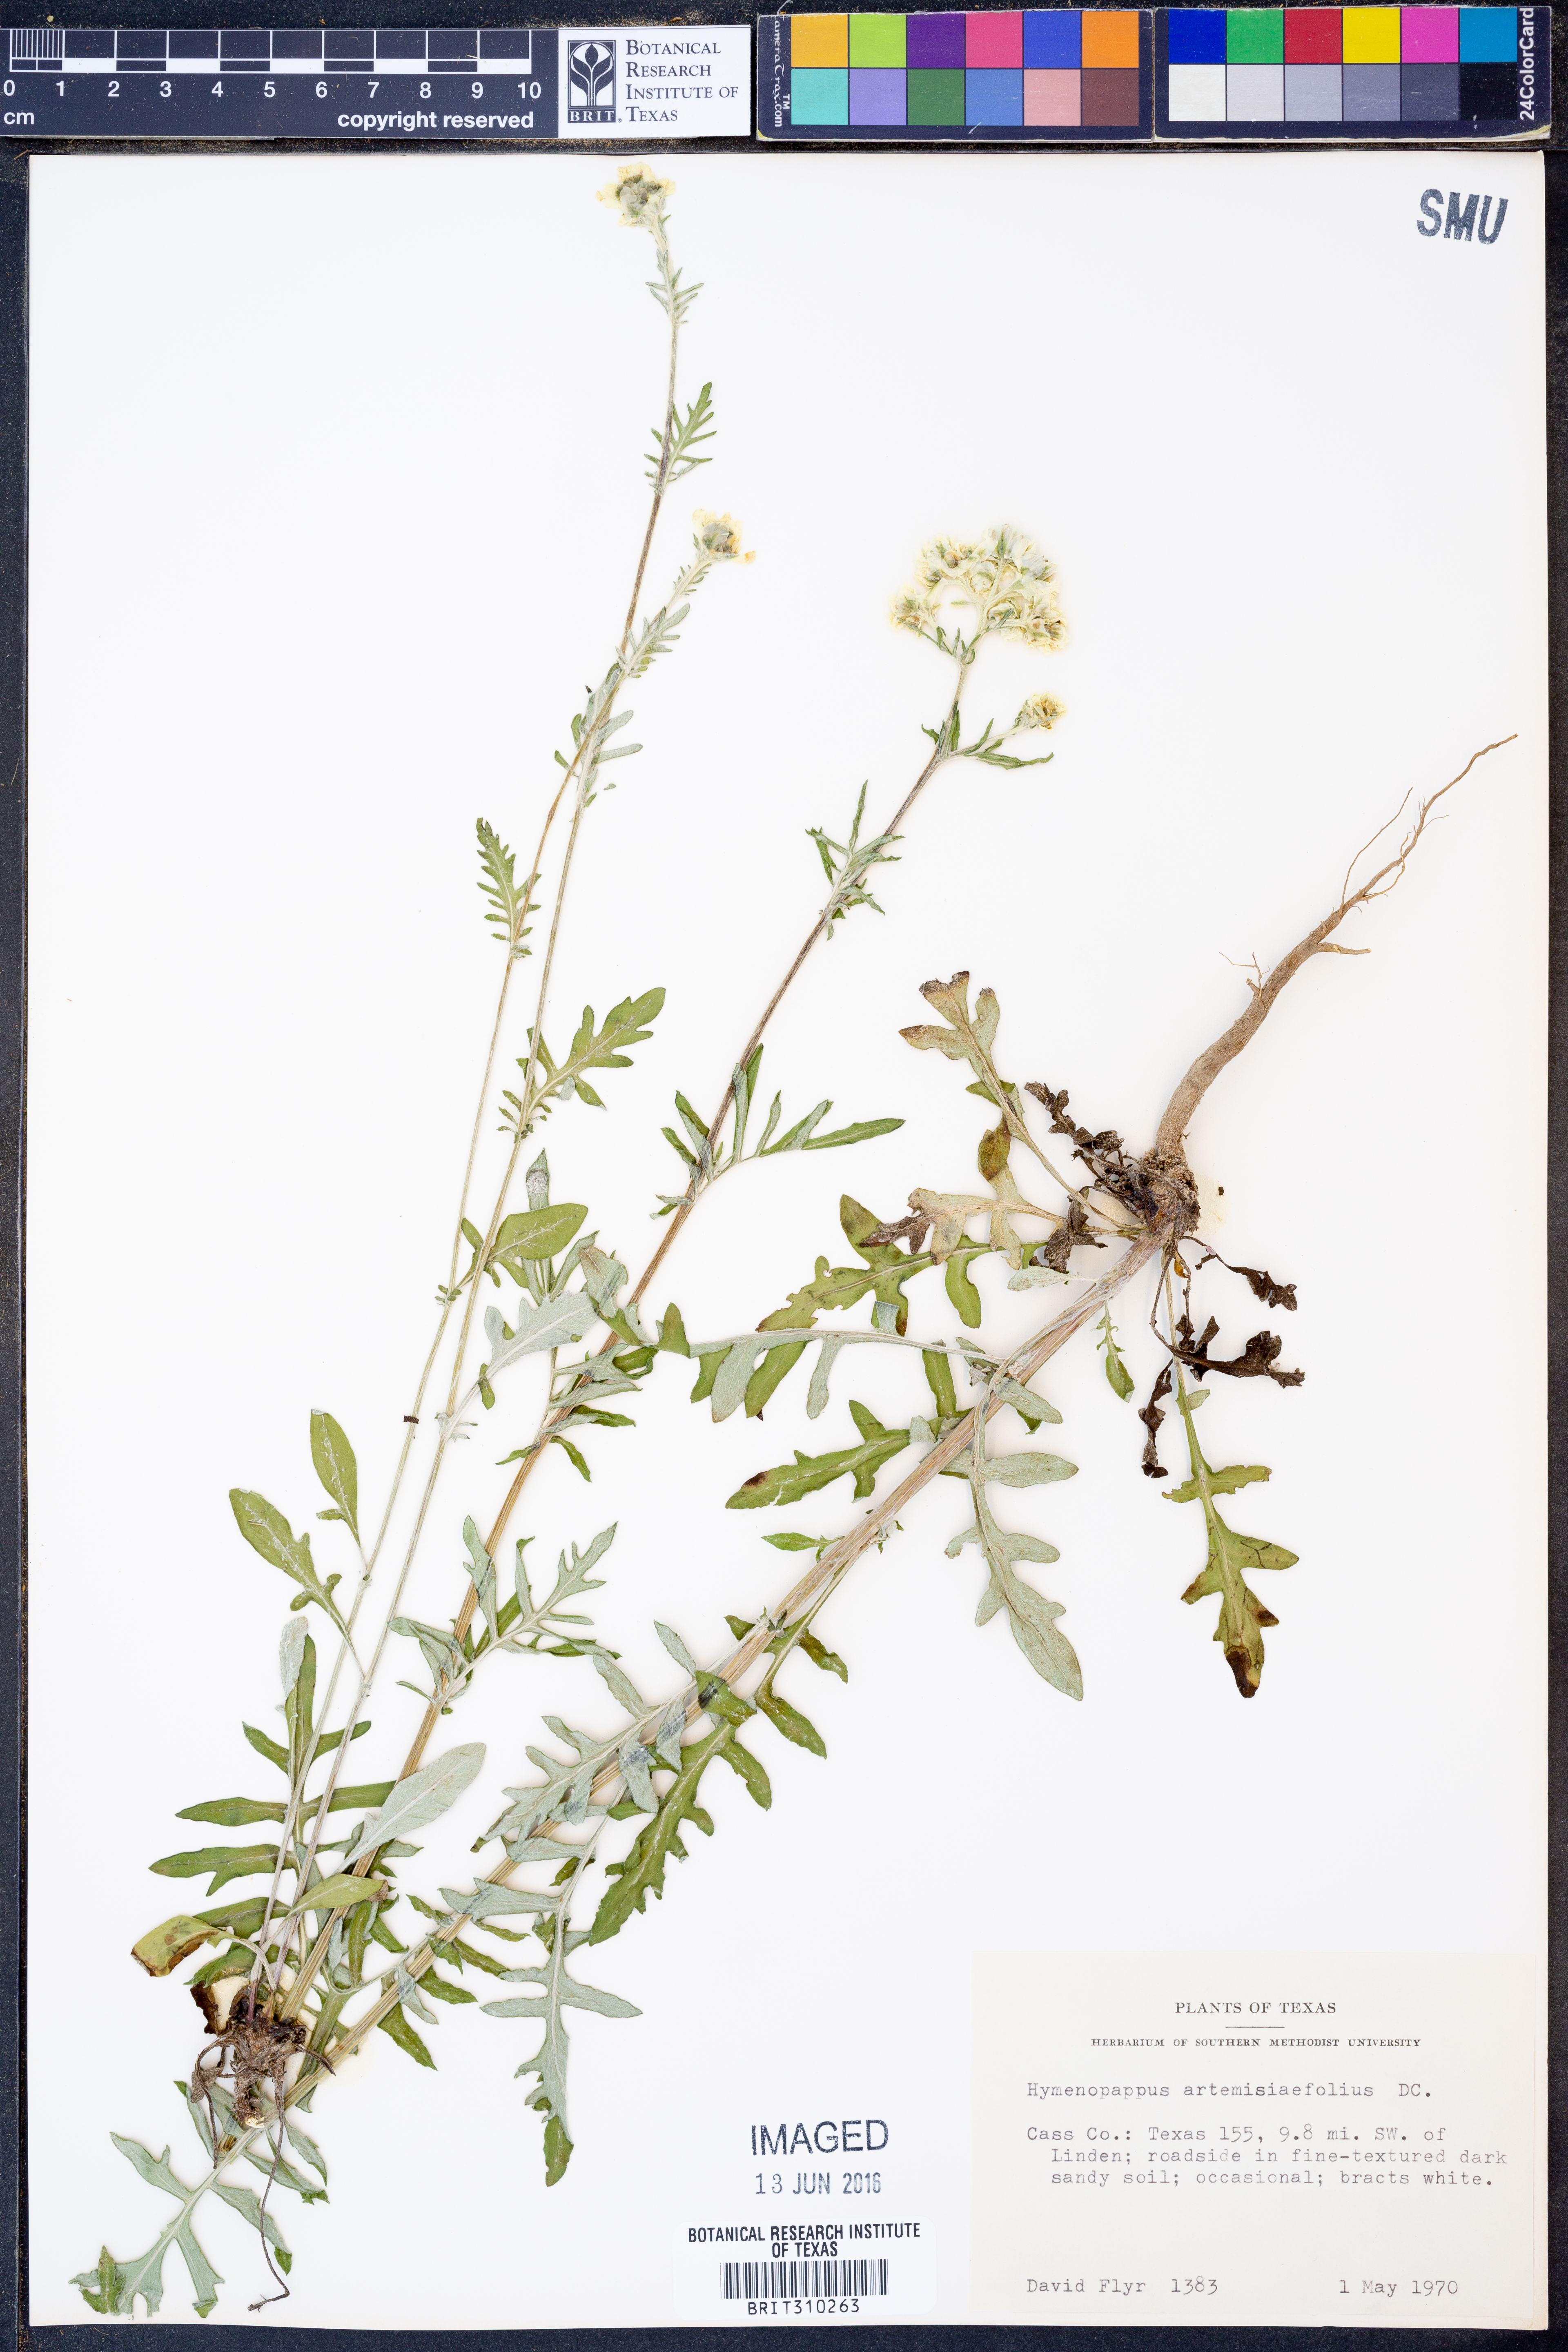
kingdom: Plantae
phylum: Tracheophyta
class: Magnoliopsida
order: Asterales
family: Asteraceae
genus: Hymenopappus
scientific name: Hymenopappus artemisiifolius
